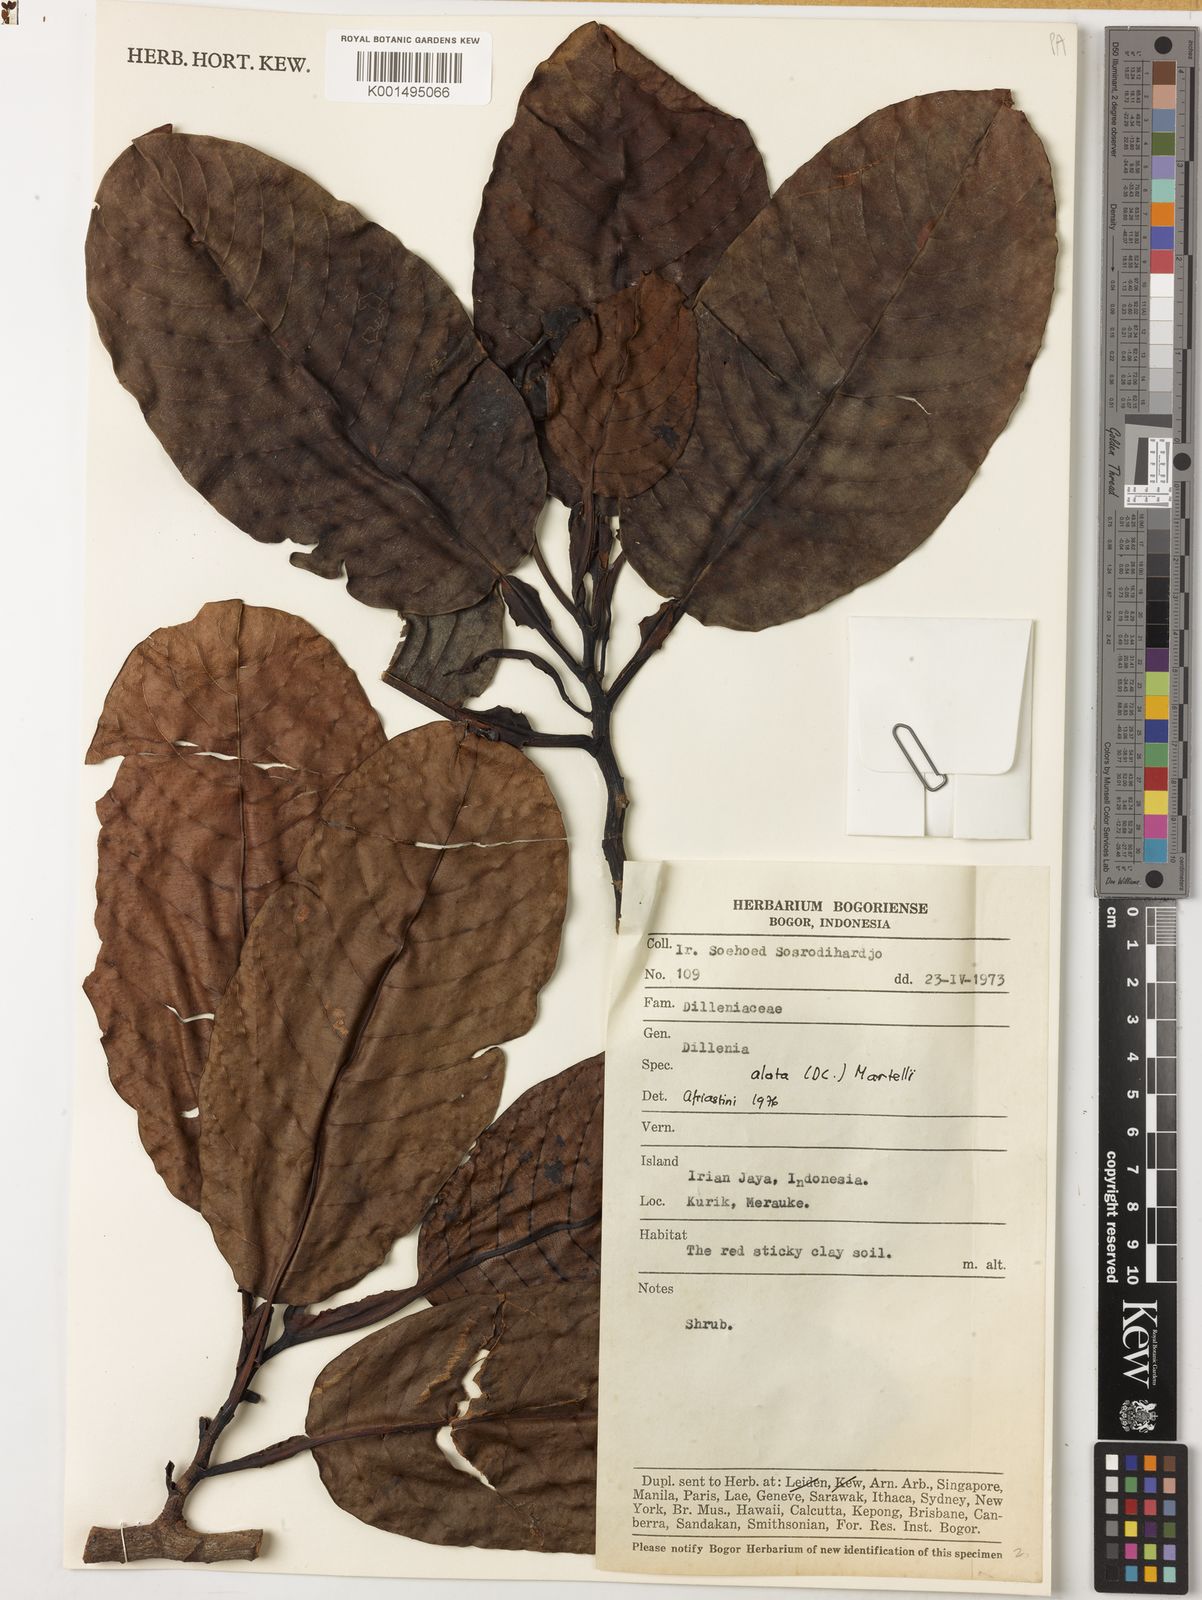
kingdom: Plantae
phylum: Tracheophyta
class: Magnoliopsida
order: Dilleniales
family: Dilleniaceae
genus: Dillenia
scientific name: Dillenia alata
